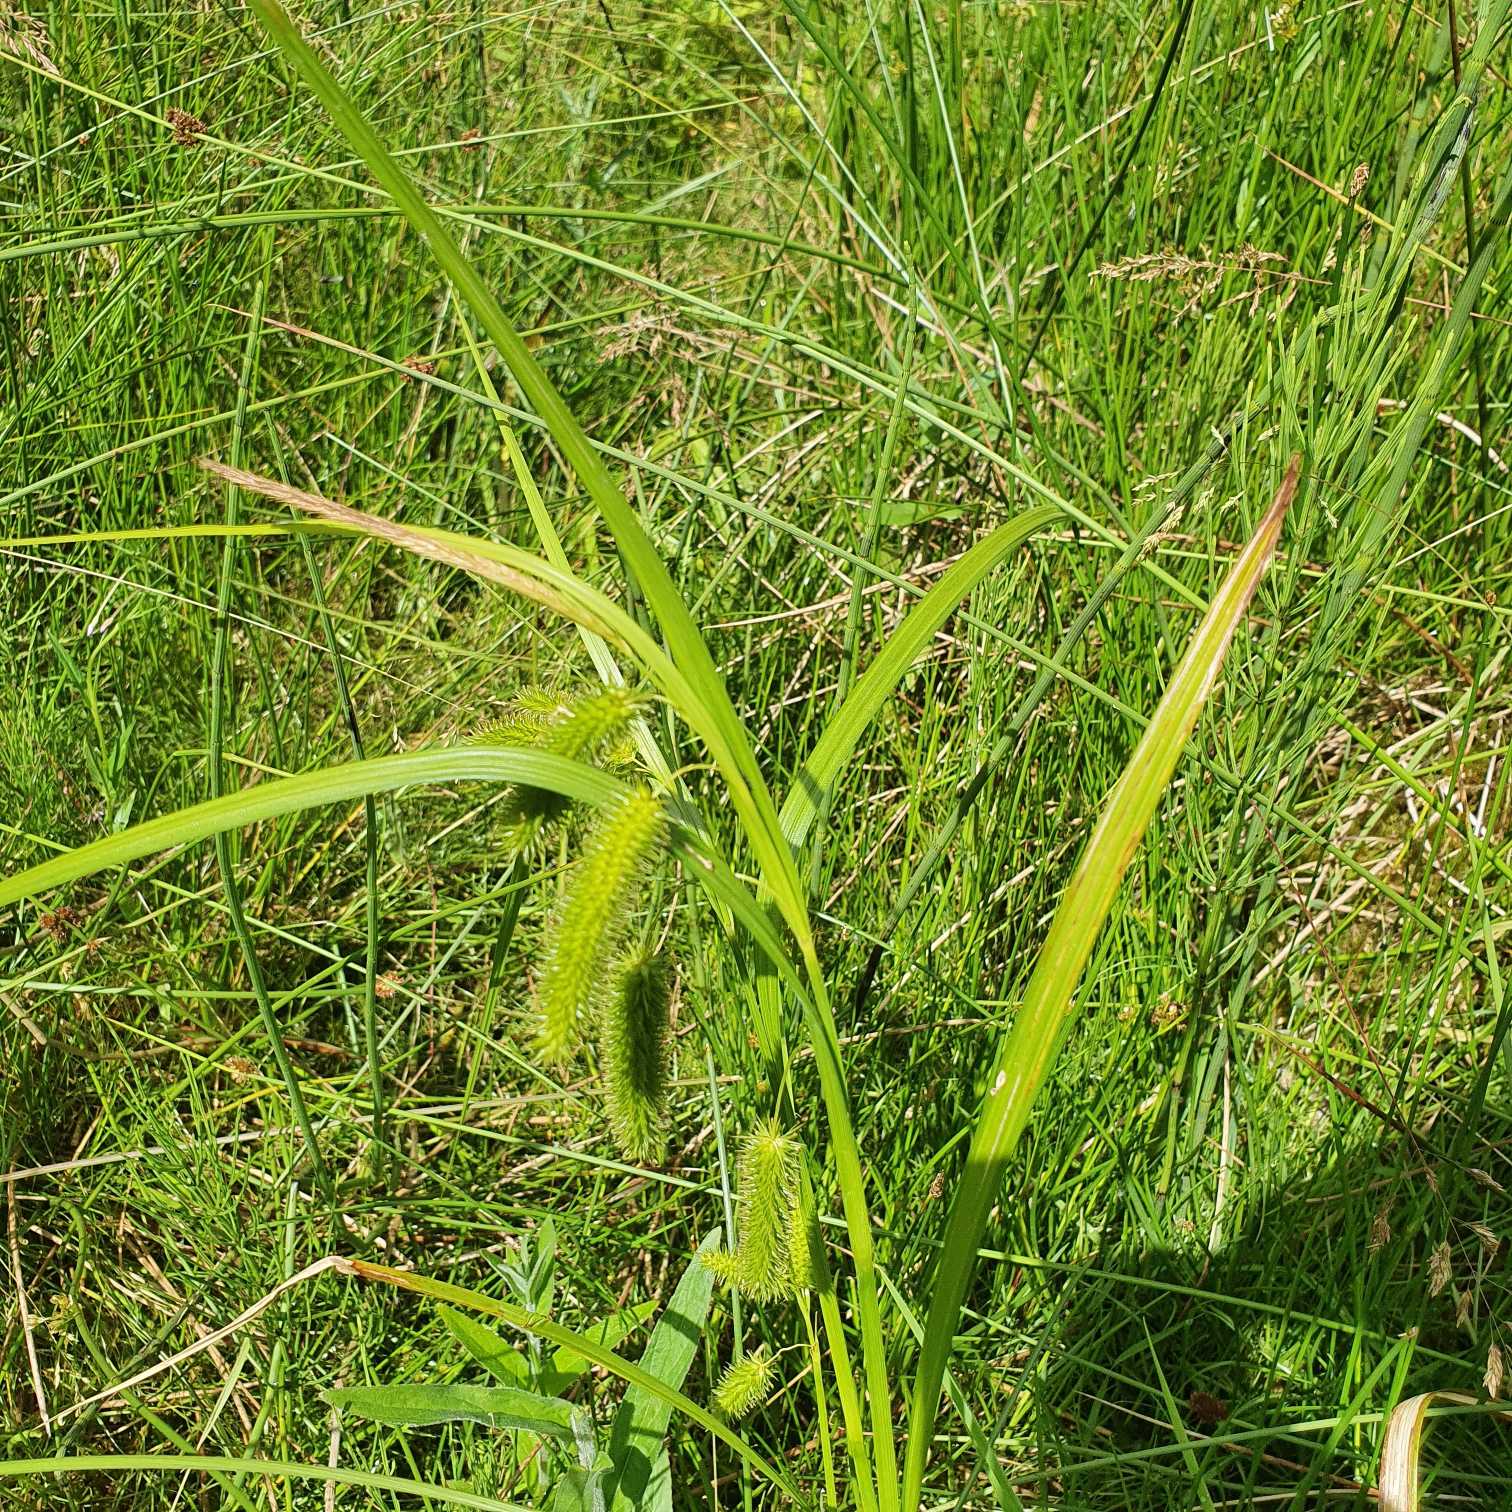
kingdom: Plantae
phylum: Tracheophyta
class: Liliopsida
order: Poales
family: Cyperaceae
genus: Carex
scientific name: Carex pseudocyperus
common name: Knippe-star
